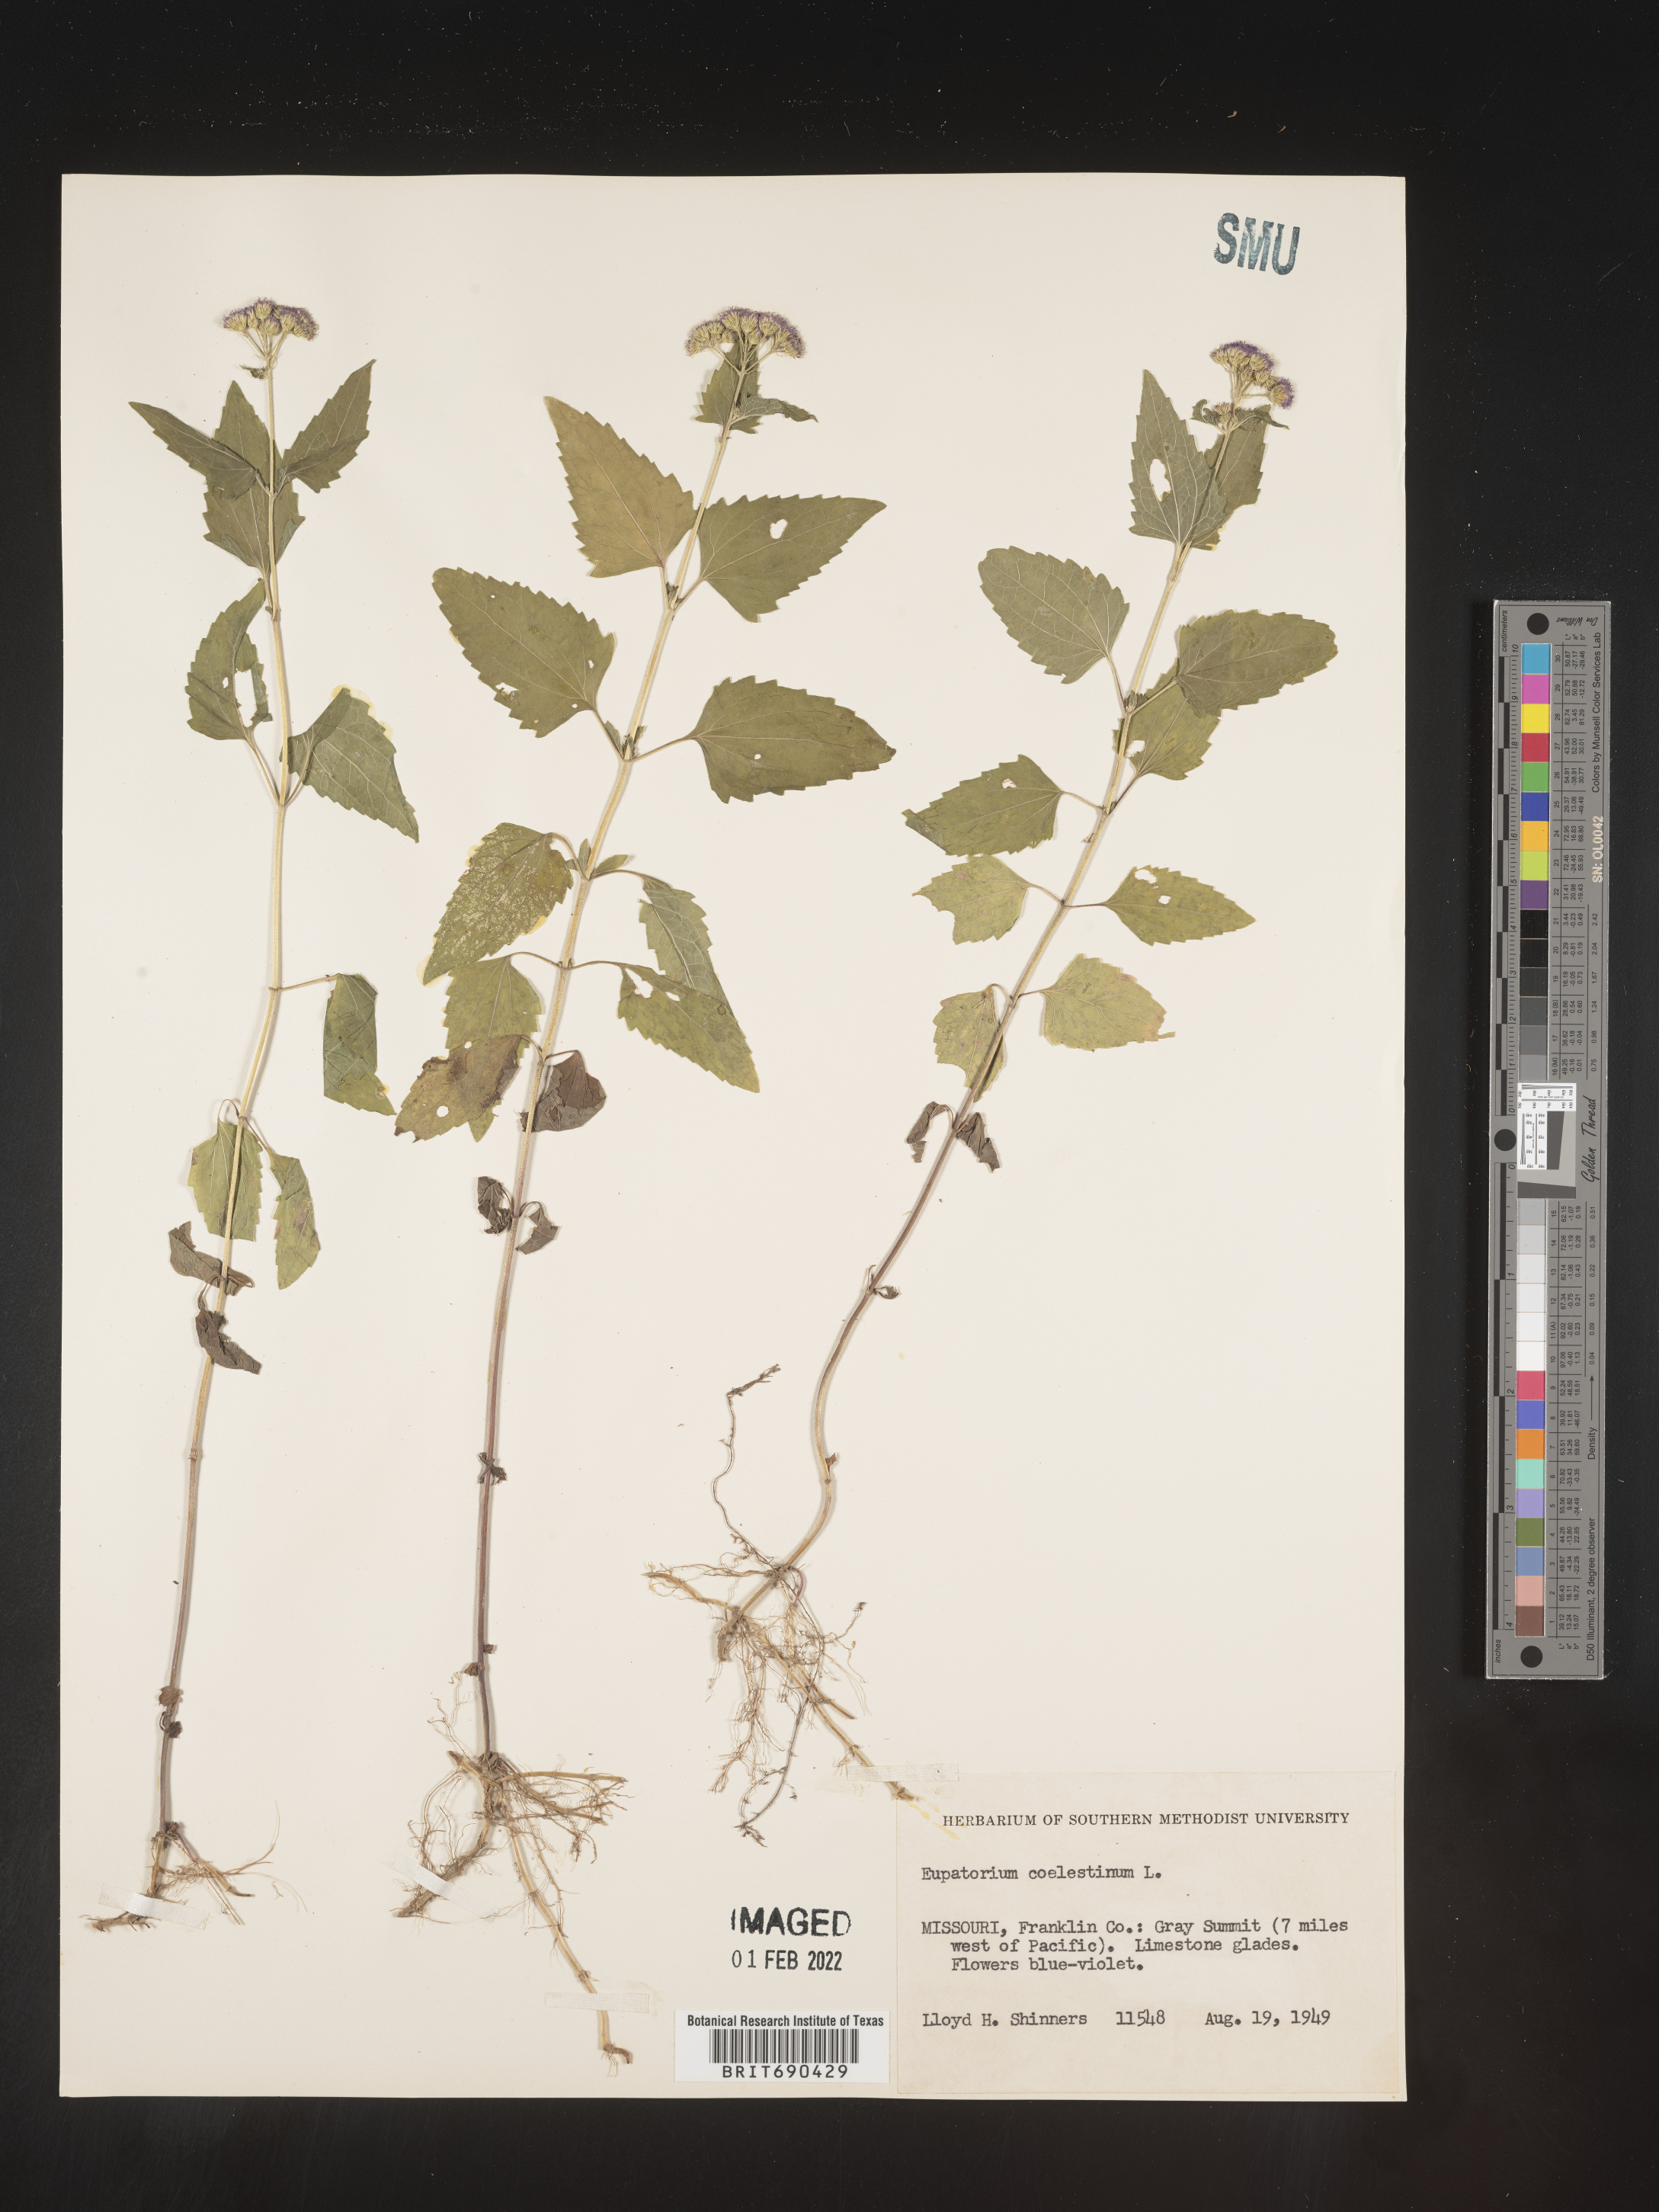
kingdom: Plantae
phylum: Tracheophyta
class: Magnoliopsida
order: Asterales
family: Asteraceae
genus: Conoclinium
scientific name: Conoclinium coelestinum
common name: Blue mistflower
